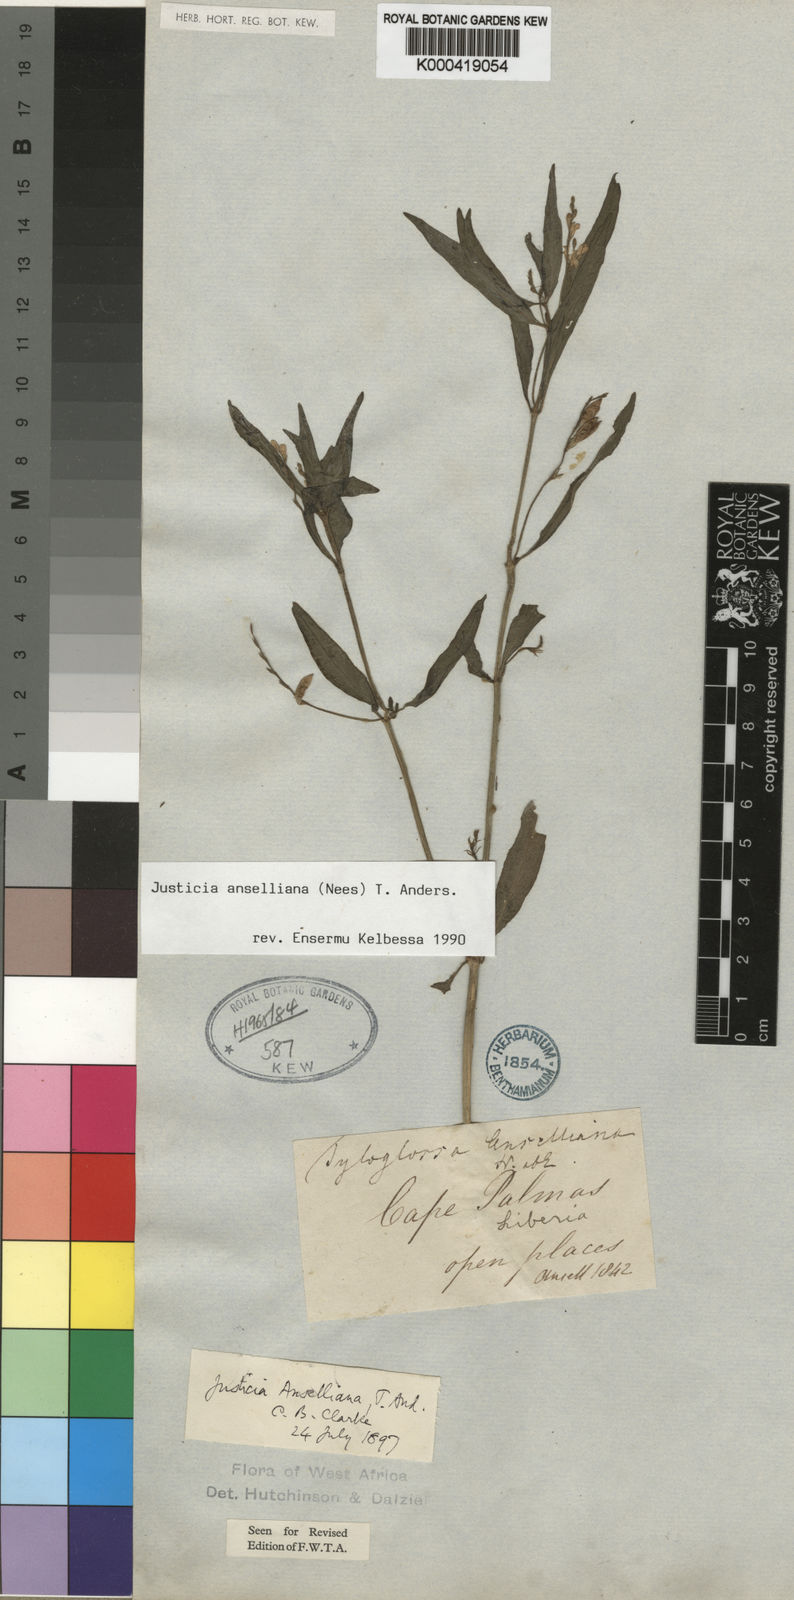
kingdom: Plantae
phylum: Tracheophyta
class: Magnoliopsida
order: Lamiales
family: Acanthaceae
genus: Justicia
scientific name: Justicia anselliana
